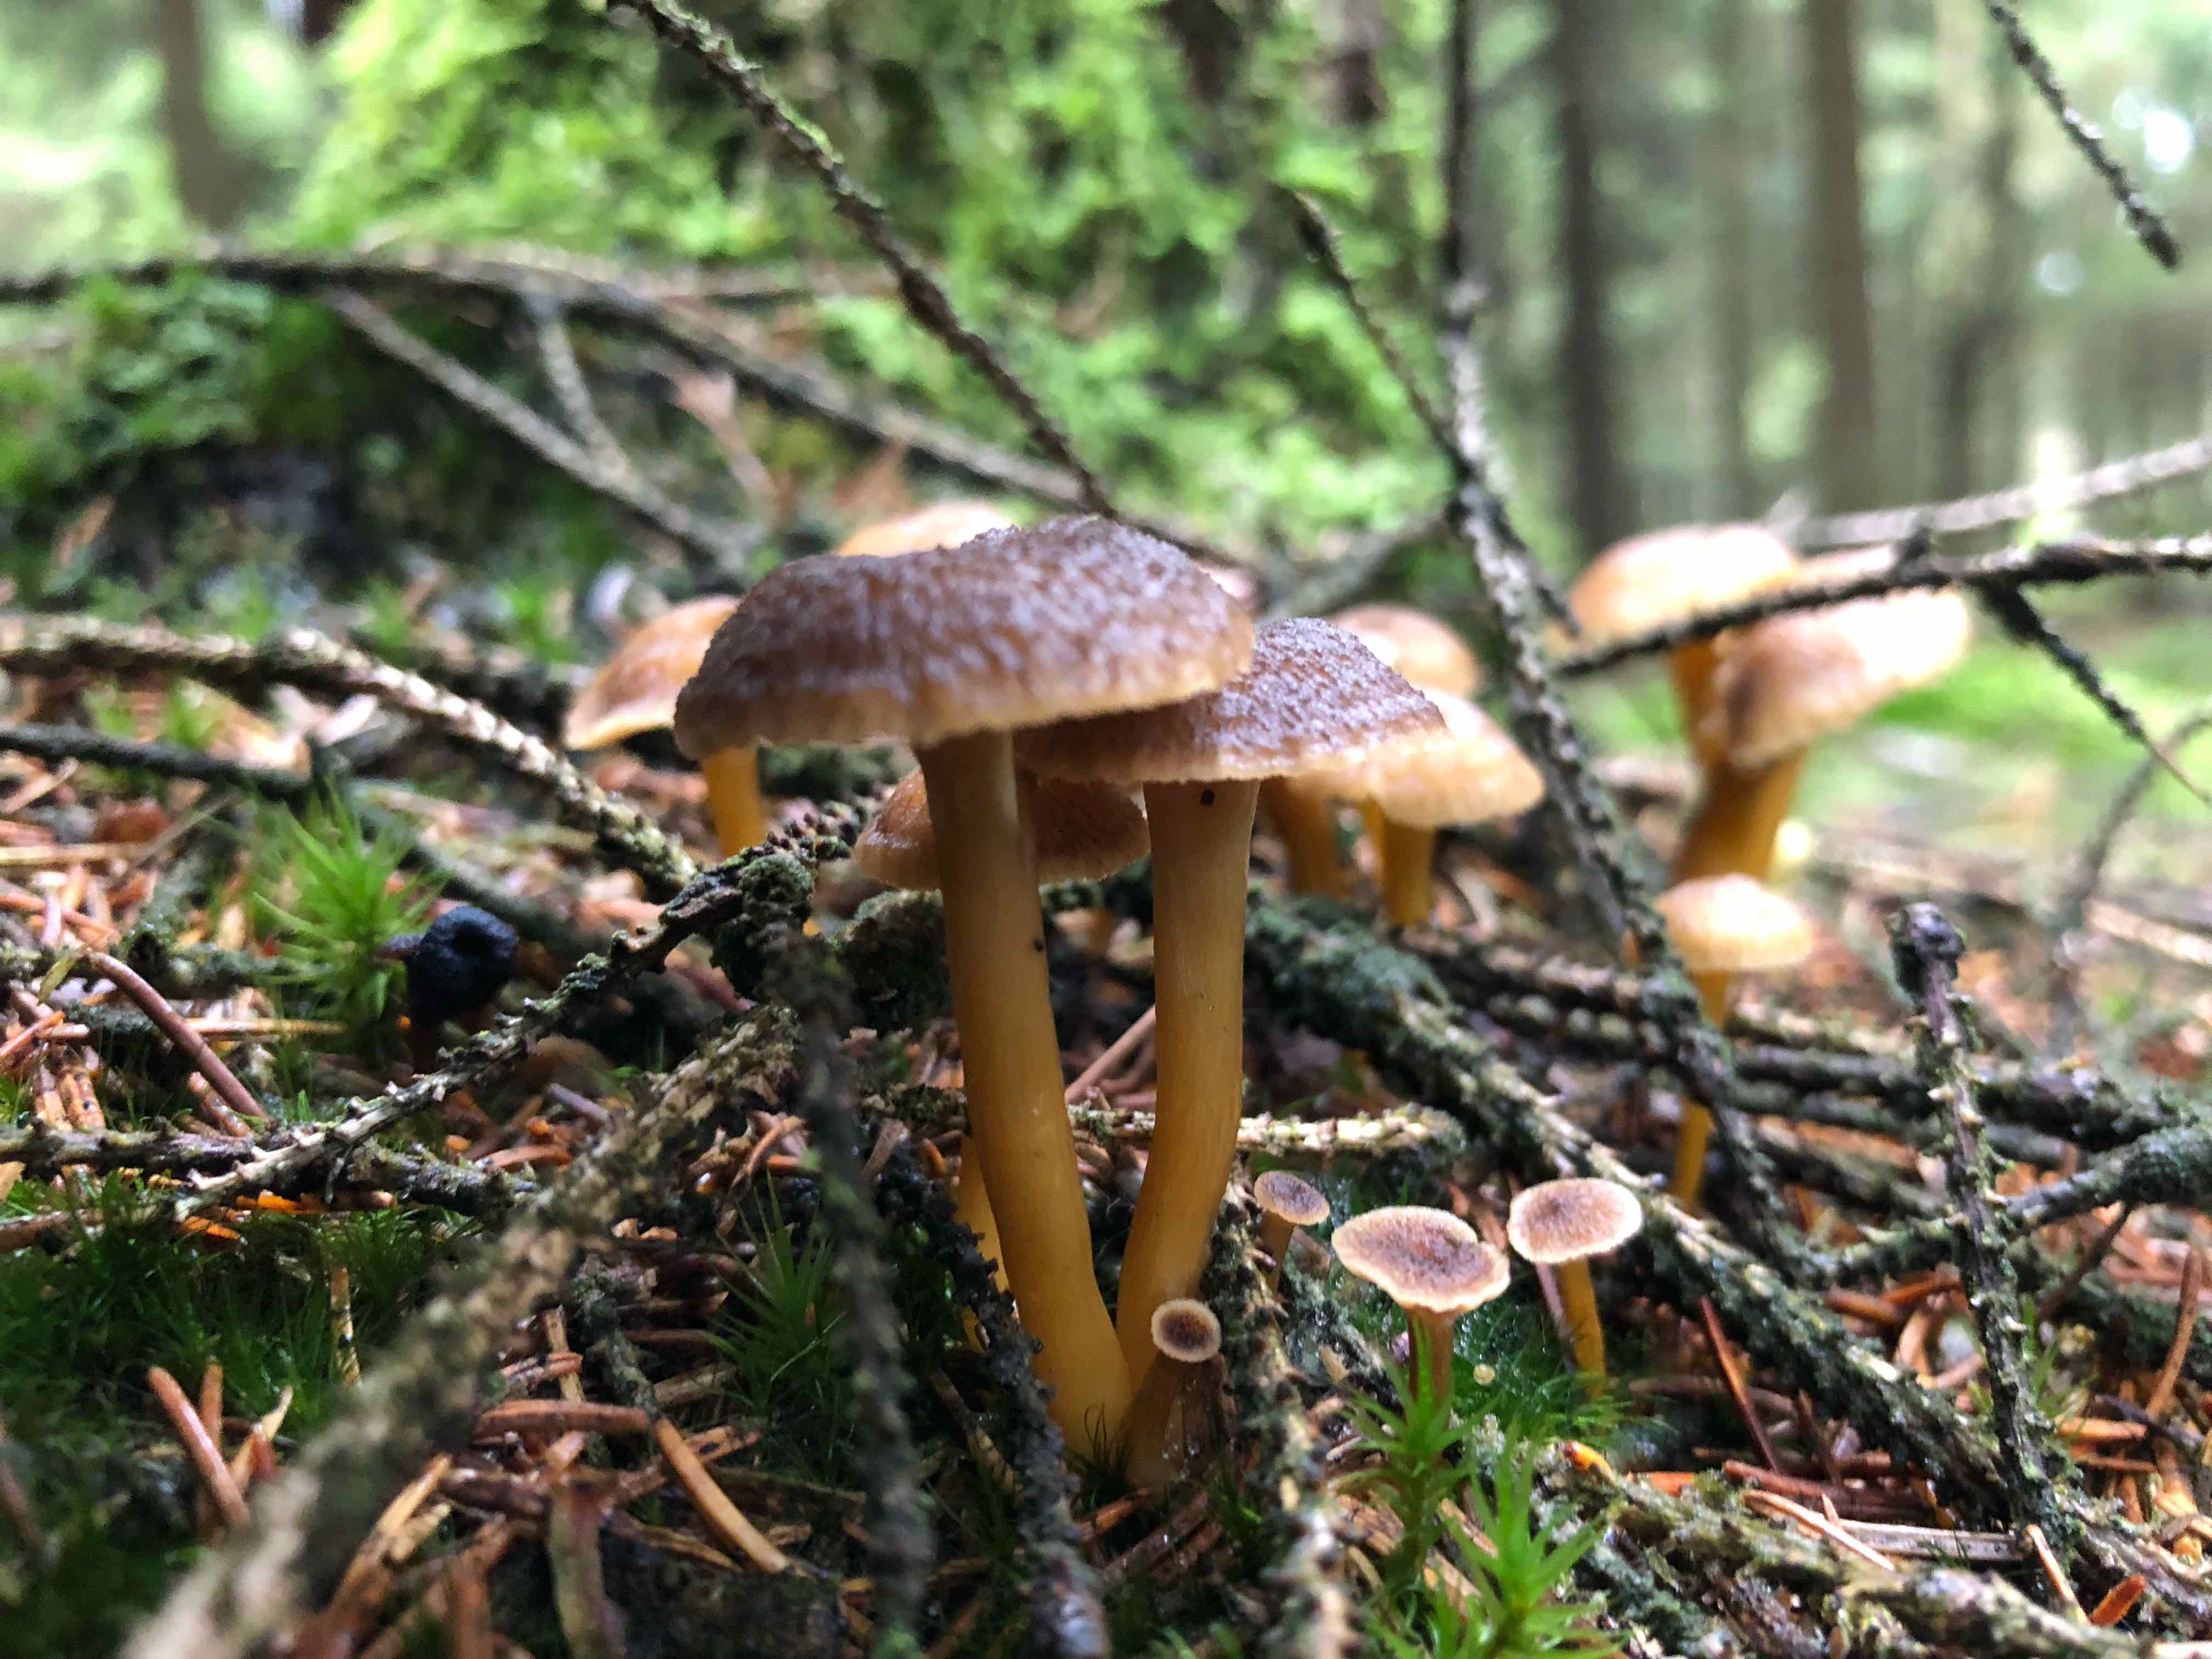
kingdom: Fungi
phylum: Basidiomycota
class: Agaricomycetes
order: Cantharellales
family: Hydnaceae
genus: Craterellus
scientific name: Craterellus tubaeformis
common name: tragt-kantarel
